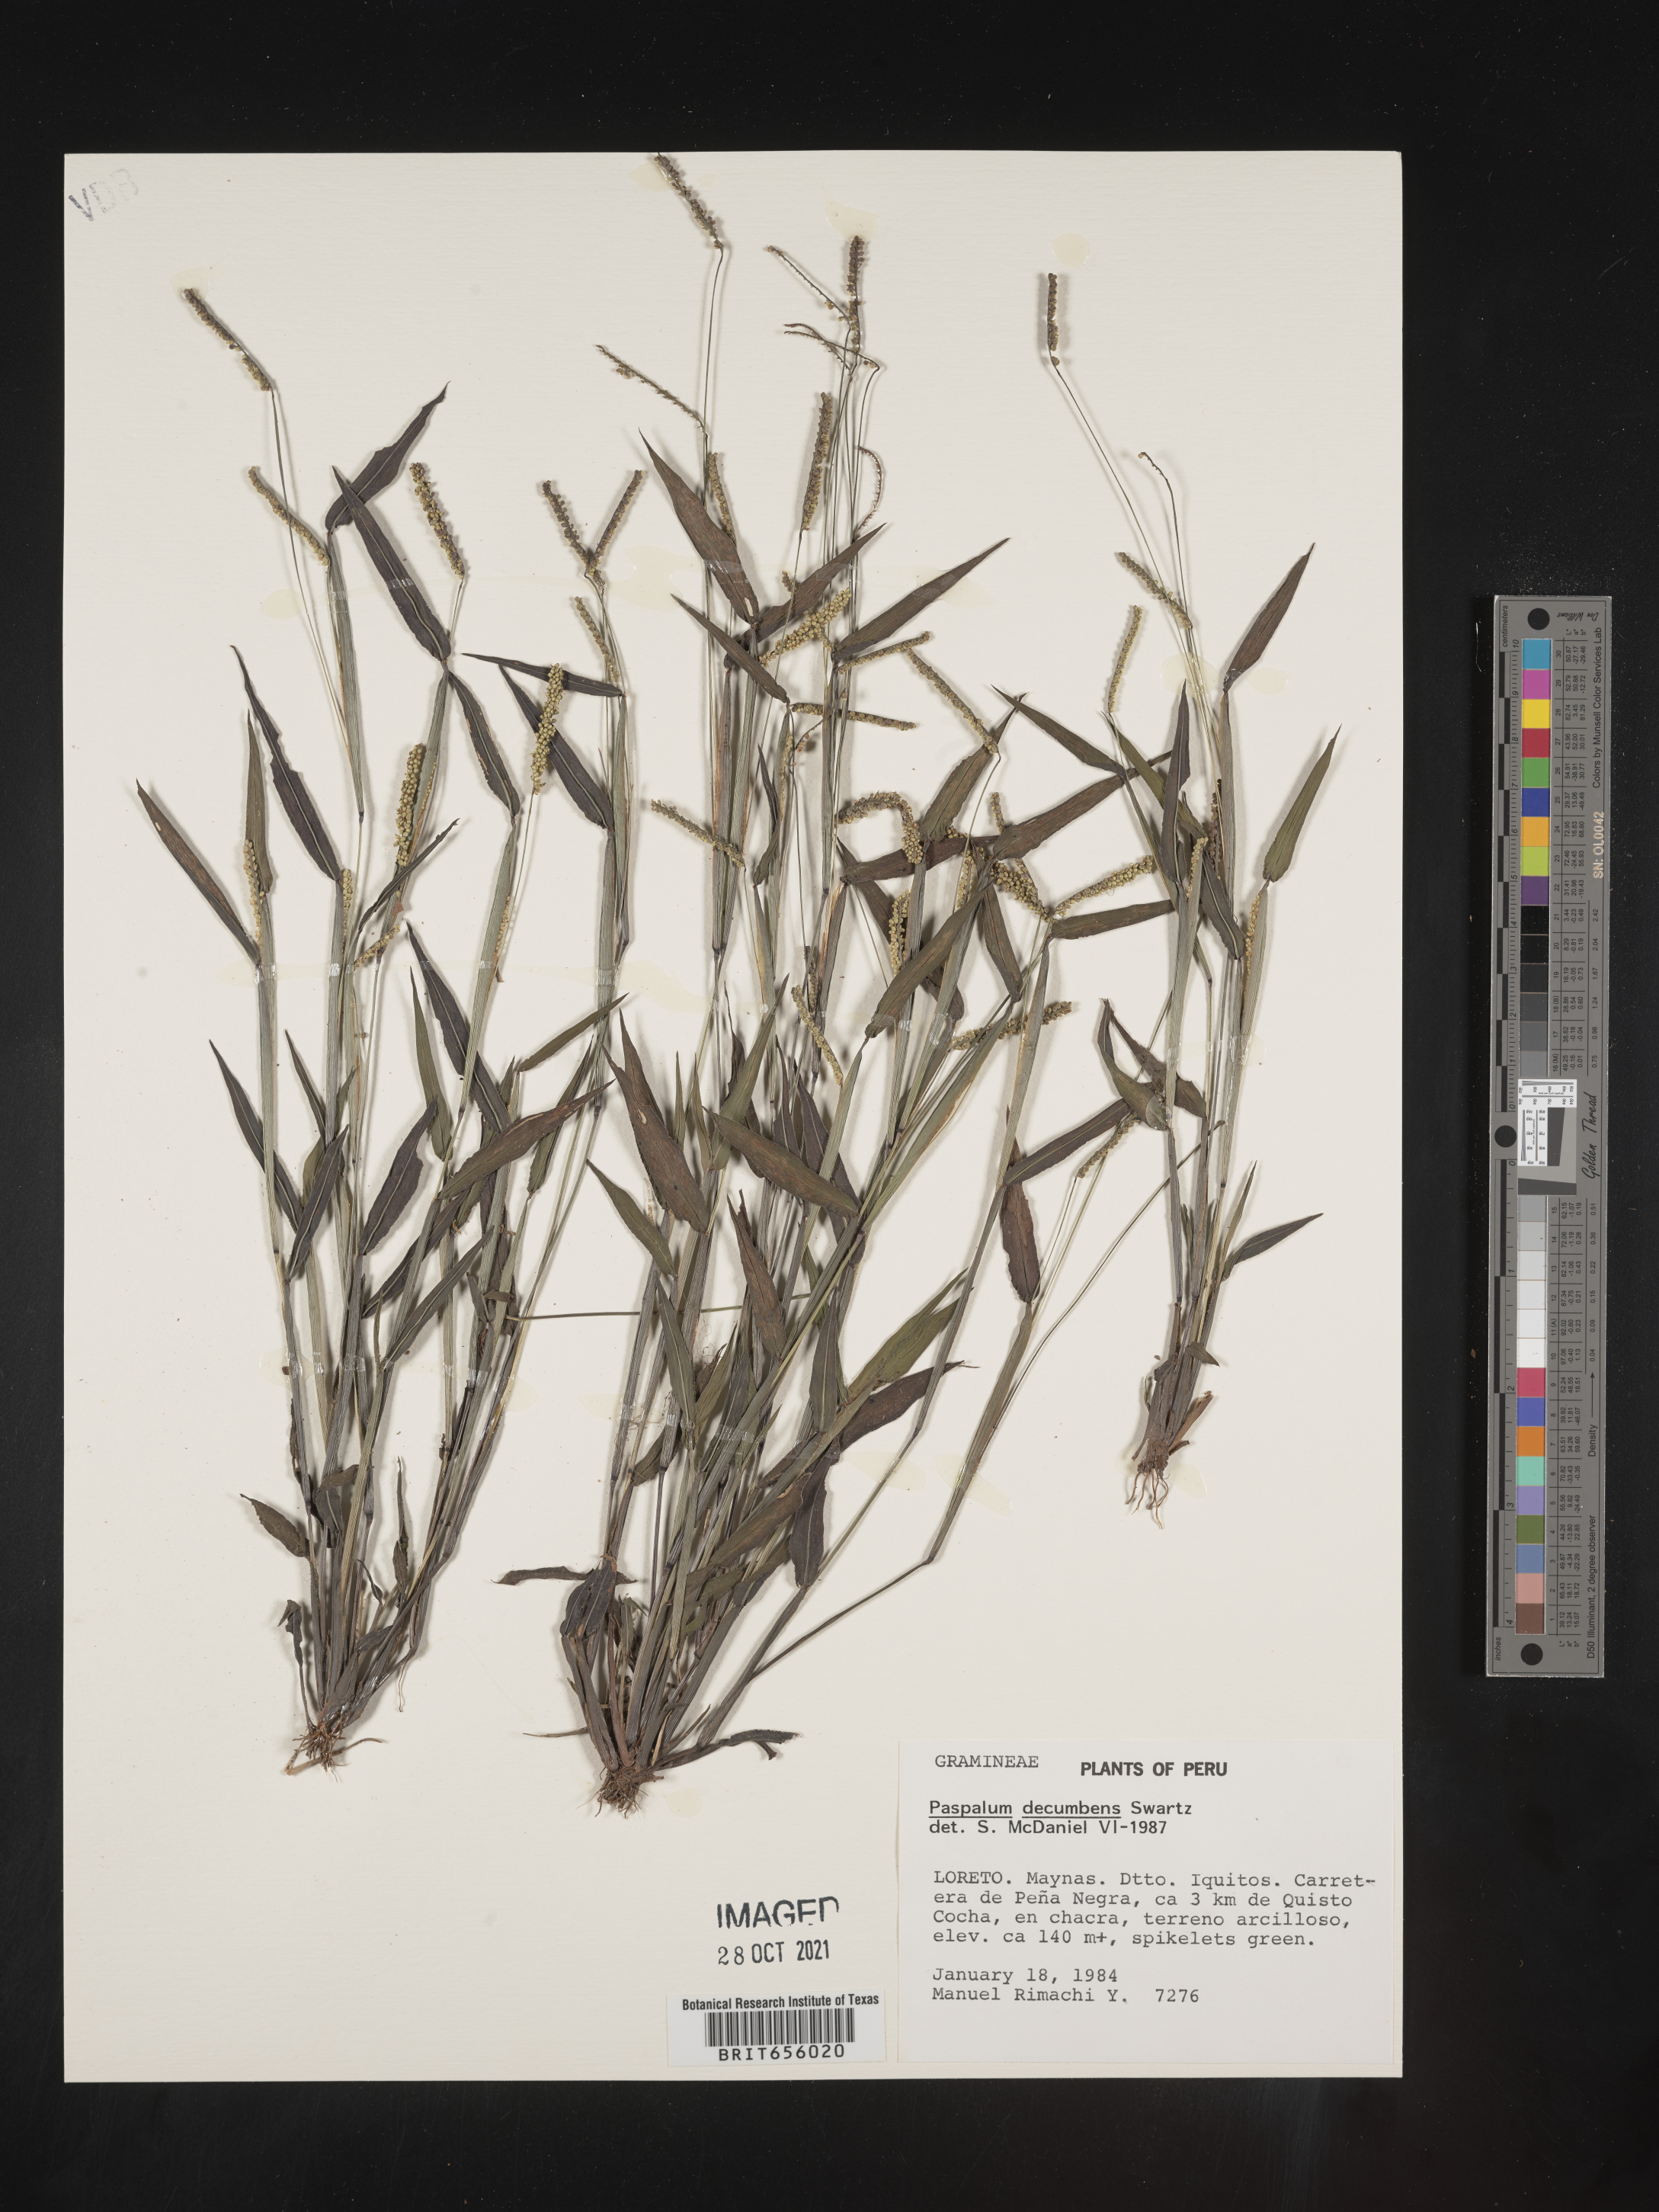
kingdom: Plantae
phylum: Tracheophyta
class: Liliopsida
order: Poales
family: Poaceae
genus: Paspalum
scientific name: Paspalum
